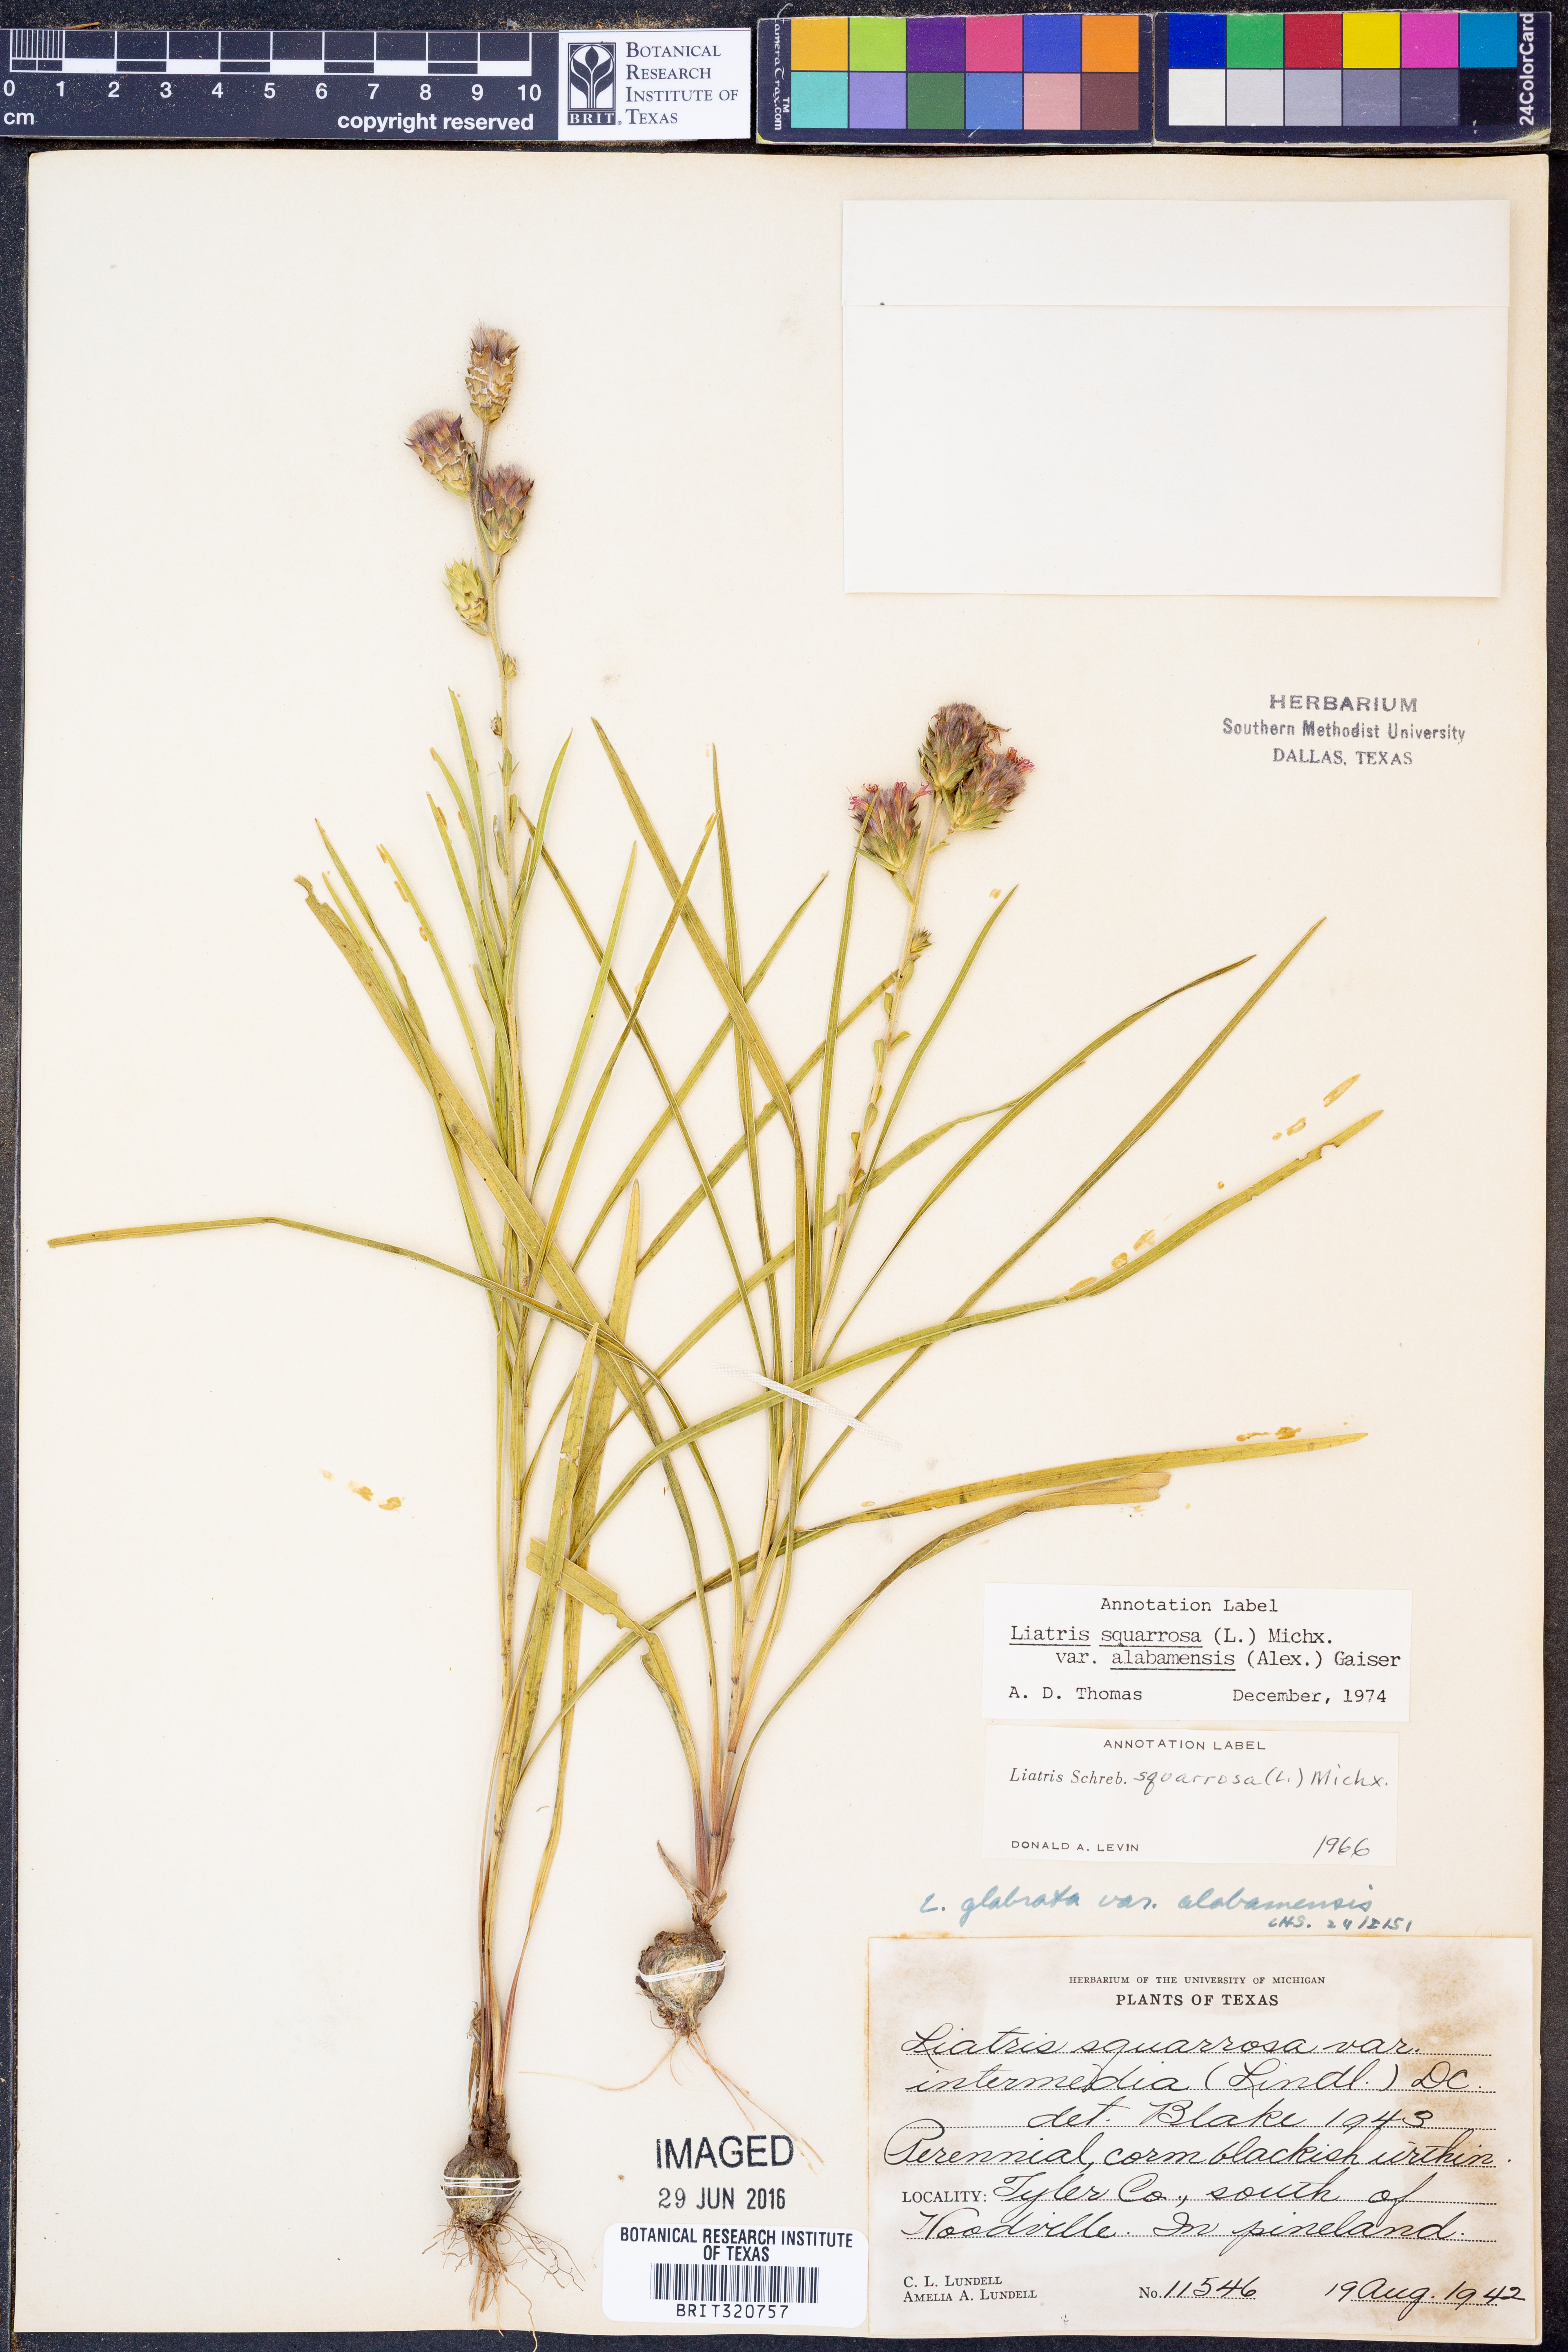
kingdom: Plantae
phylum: Tracheophyta
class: Magnoliopsida
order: Asterales
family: Asteraceae
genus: Liatris
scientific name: Liatris squarrosa
